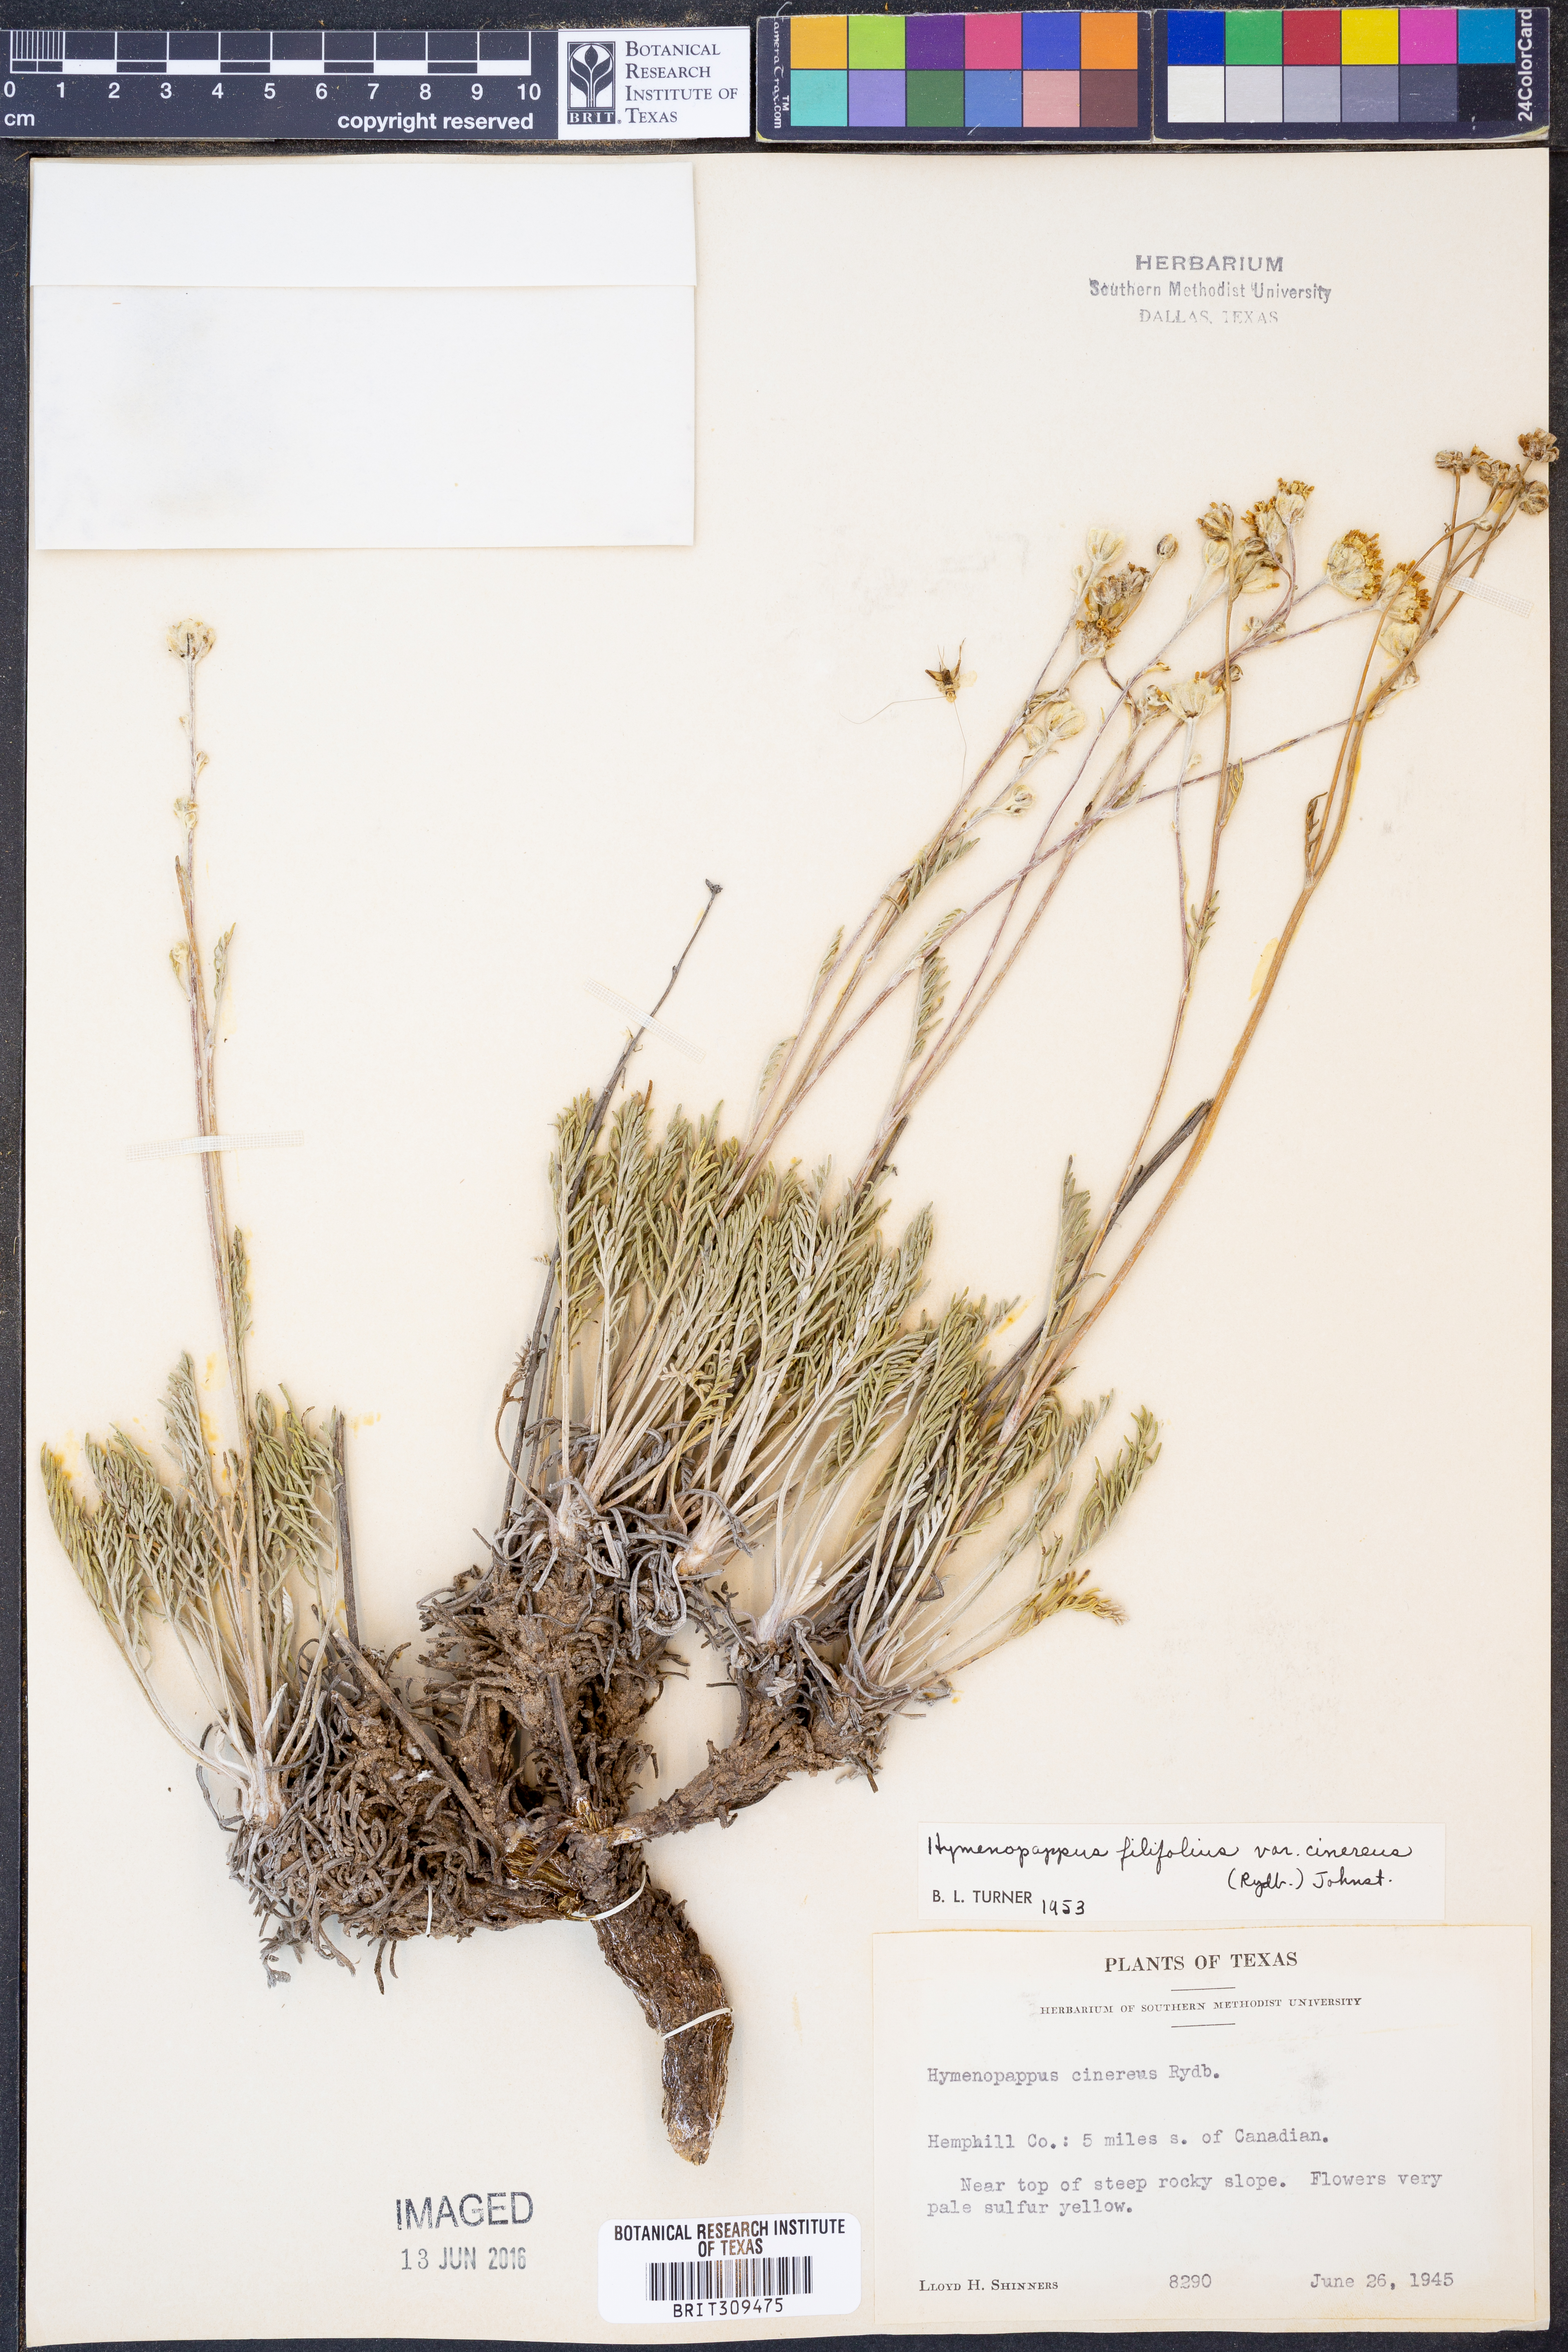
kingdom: Plantae
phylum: Tracheophyta
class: Magnoliopsida
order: Asterales
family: Asteraceae
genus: Hymenopappus
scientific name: Hymenopappus filifolius
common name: Columbia cutleaf
